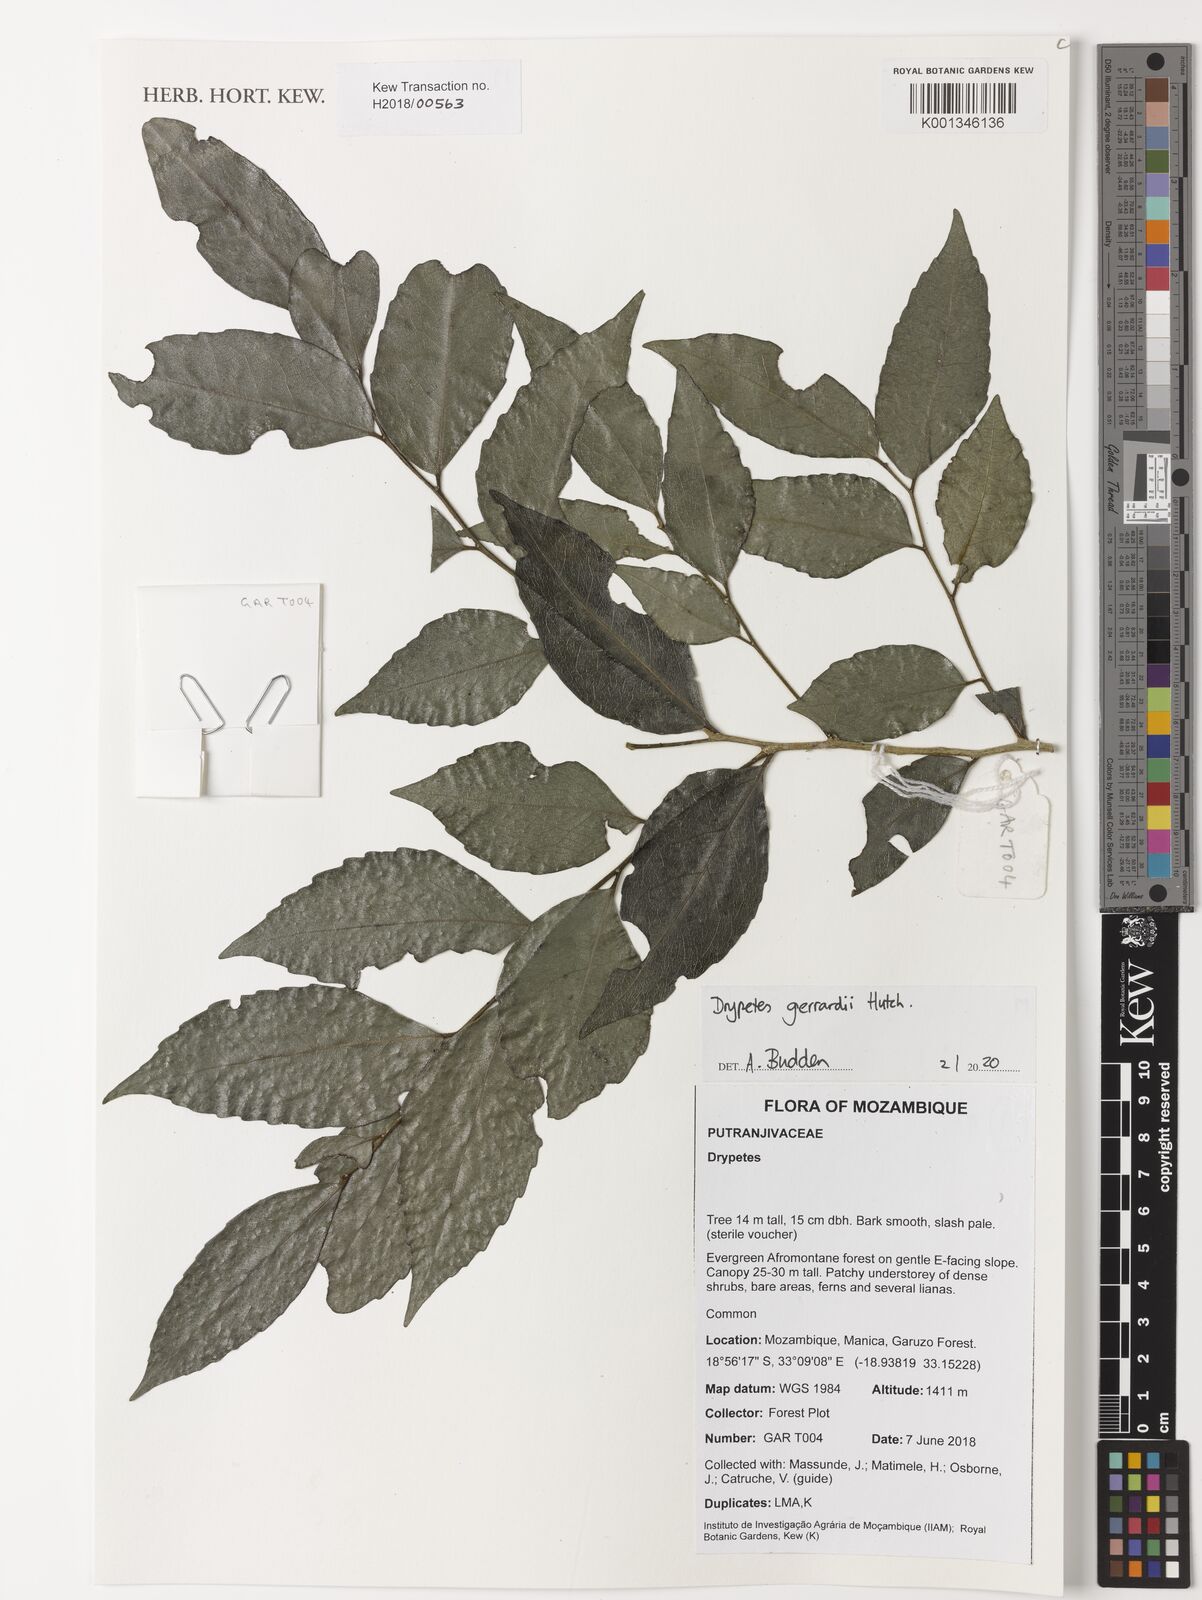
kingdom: Plantae
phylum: Tracheophyta
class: Magnoliopsida
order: Malpighiales
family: Putranjivaceae
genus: Drypetes
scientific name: Drypetes gerrardii
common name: Forest ironplum
